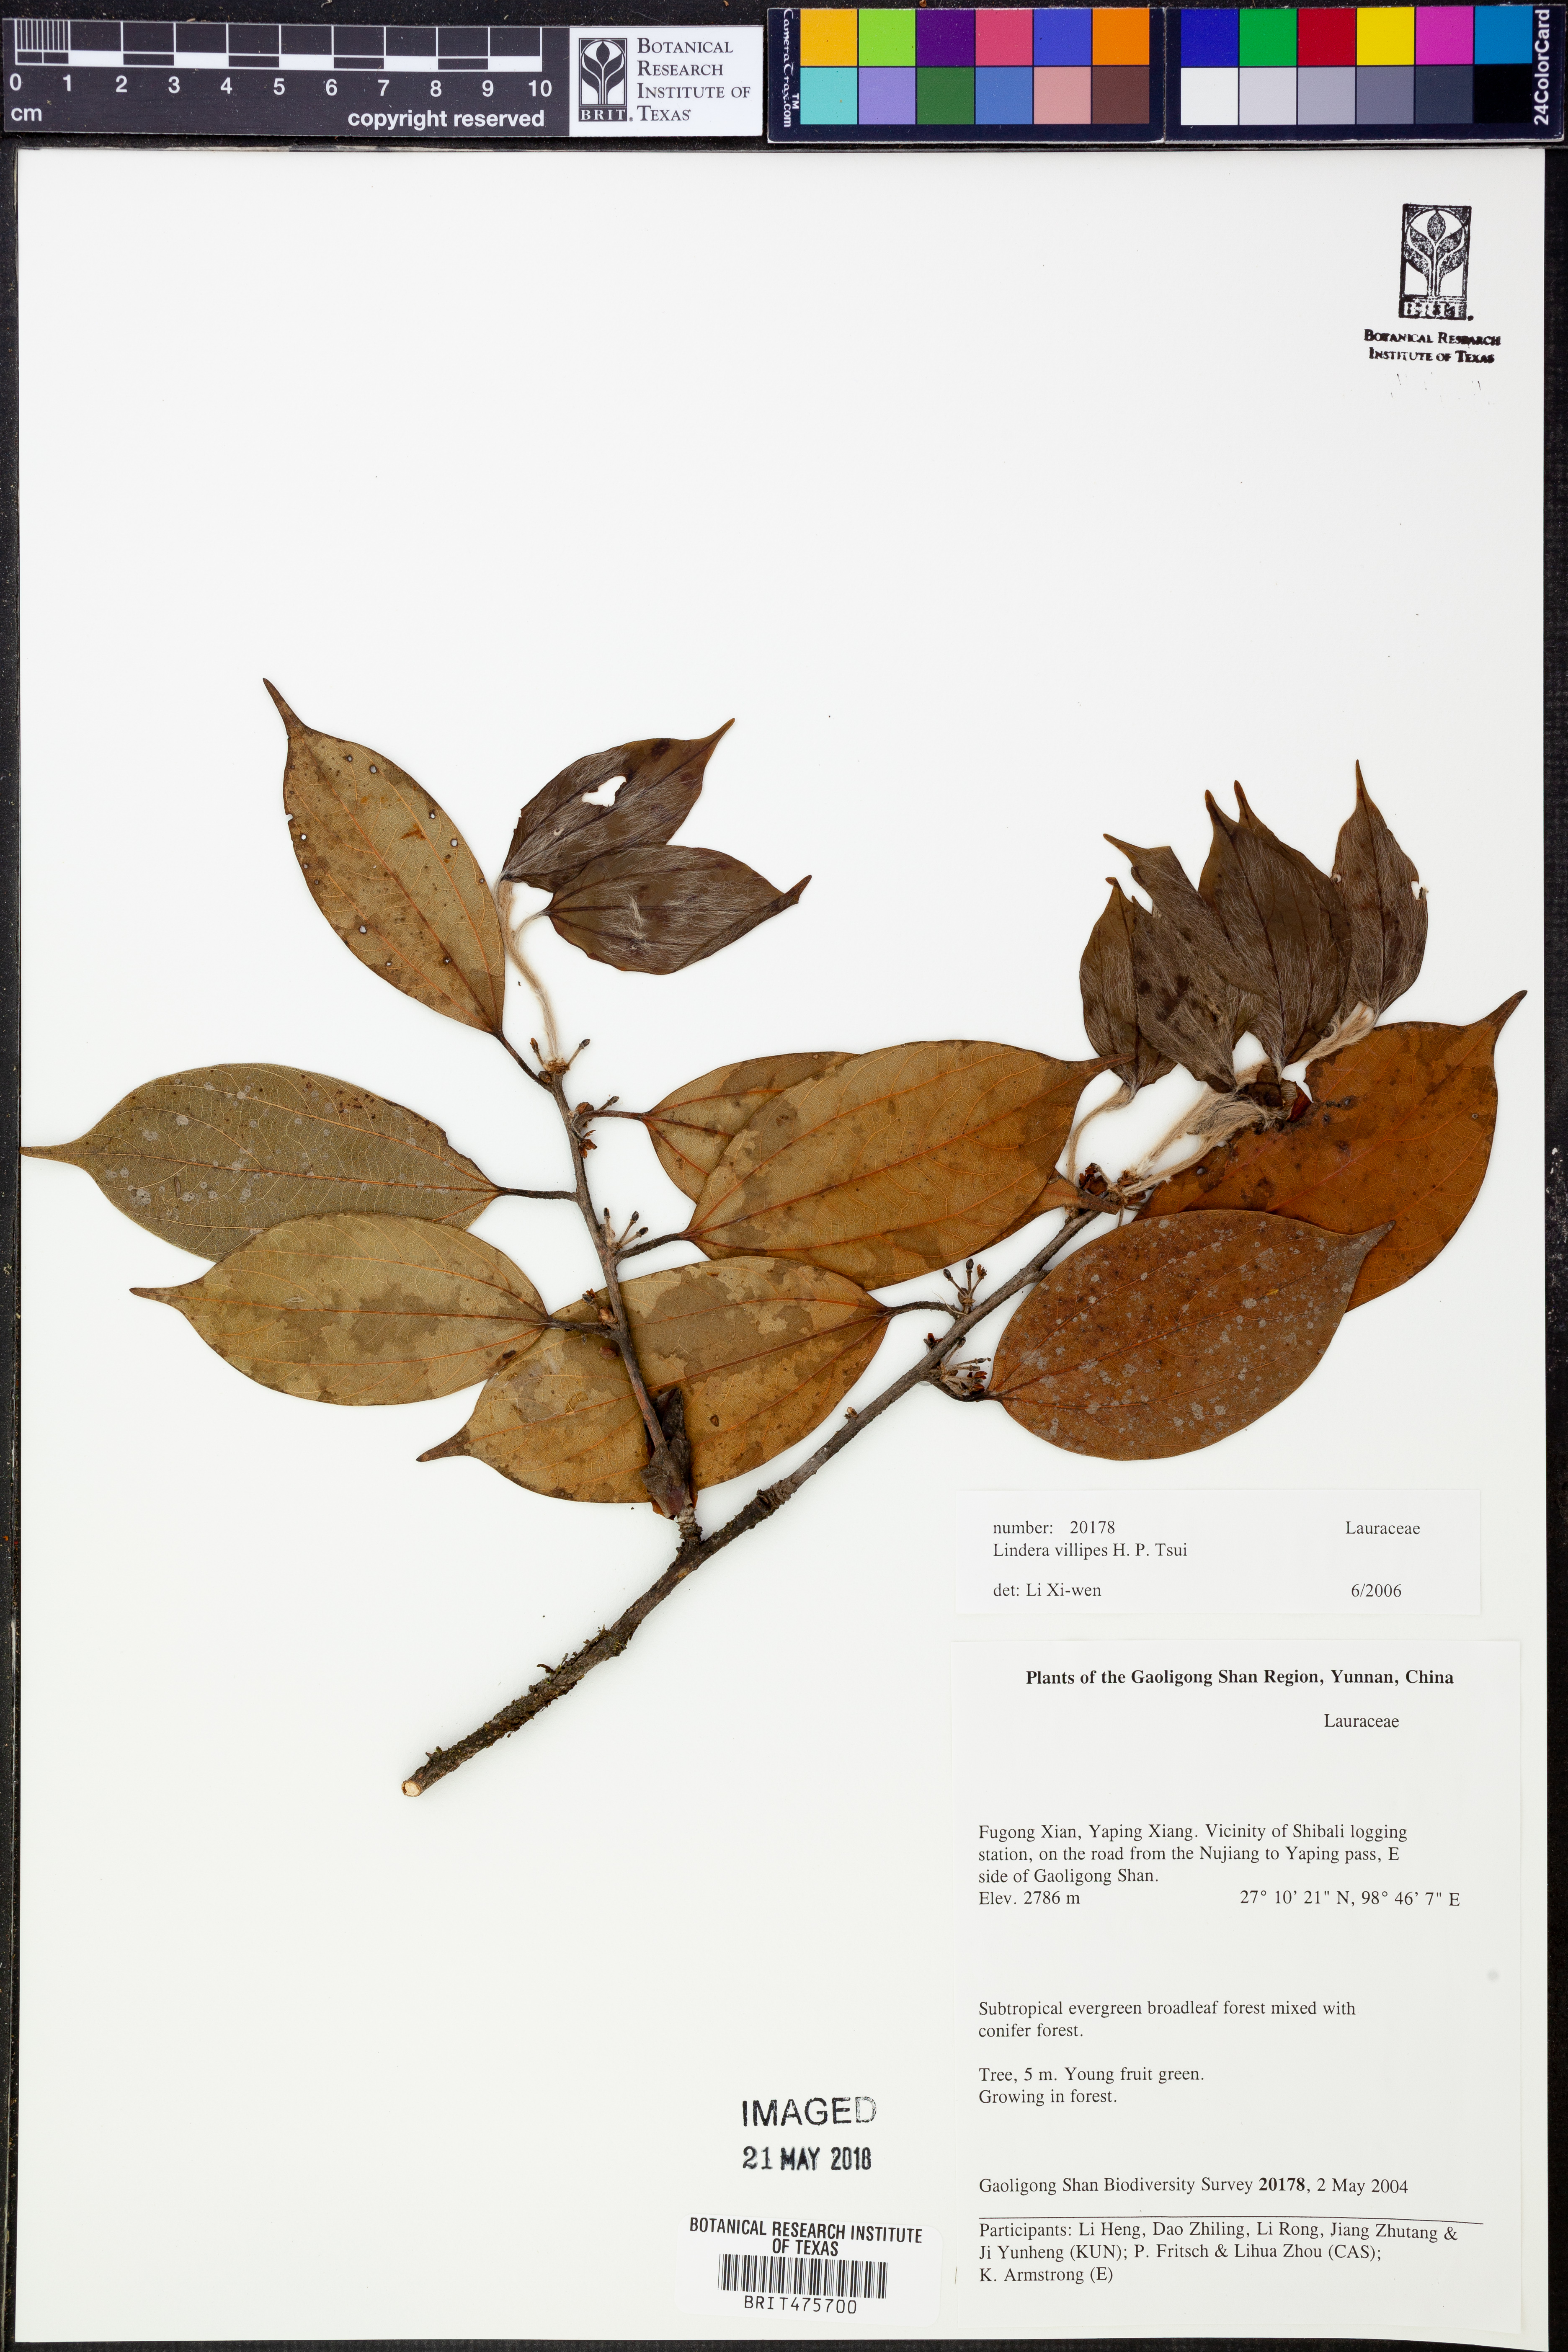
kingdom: Plantae
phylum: Tracheophyta
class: Magnoliopsida
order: Laurales
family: Lauraceae
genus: Lindera
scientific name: Lindera villipes
